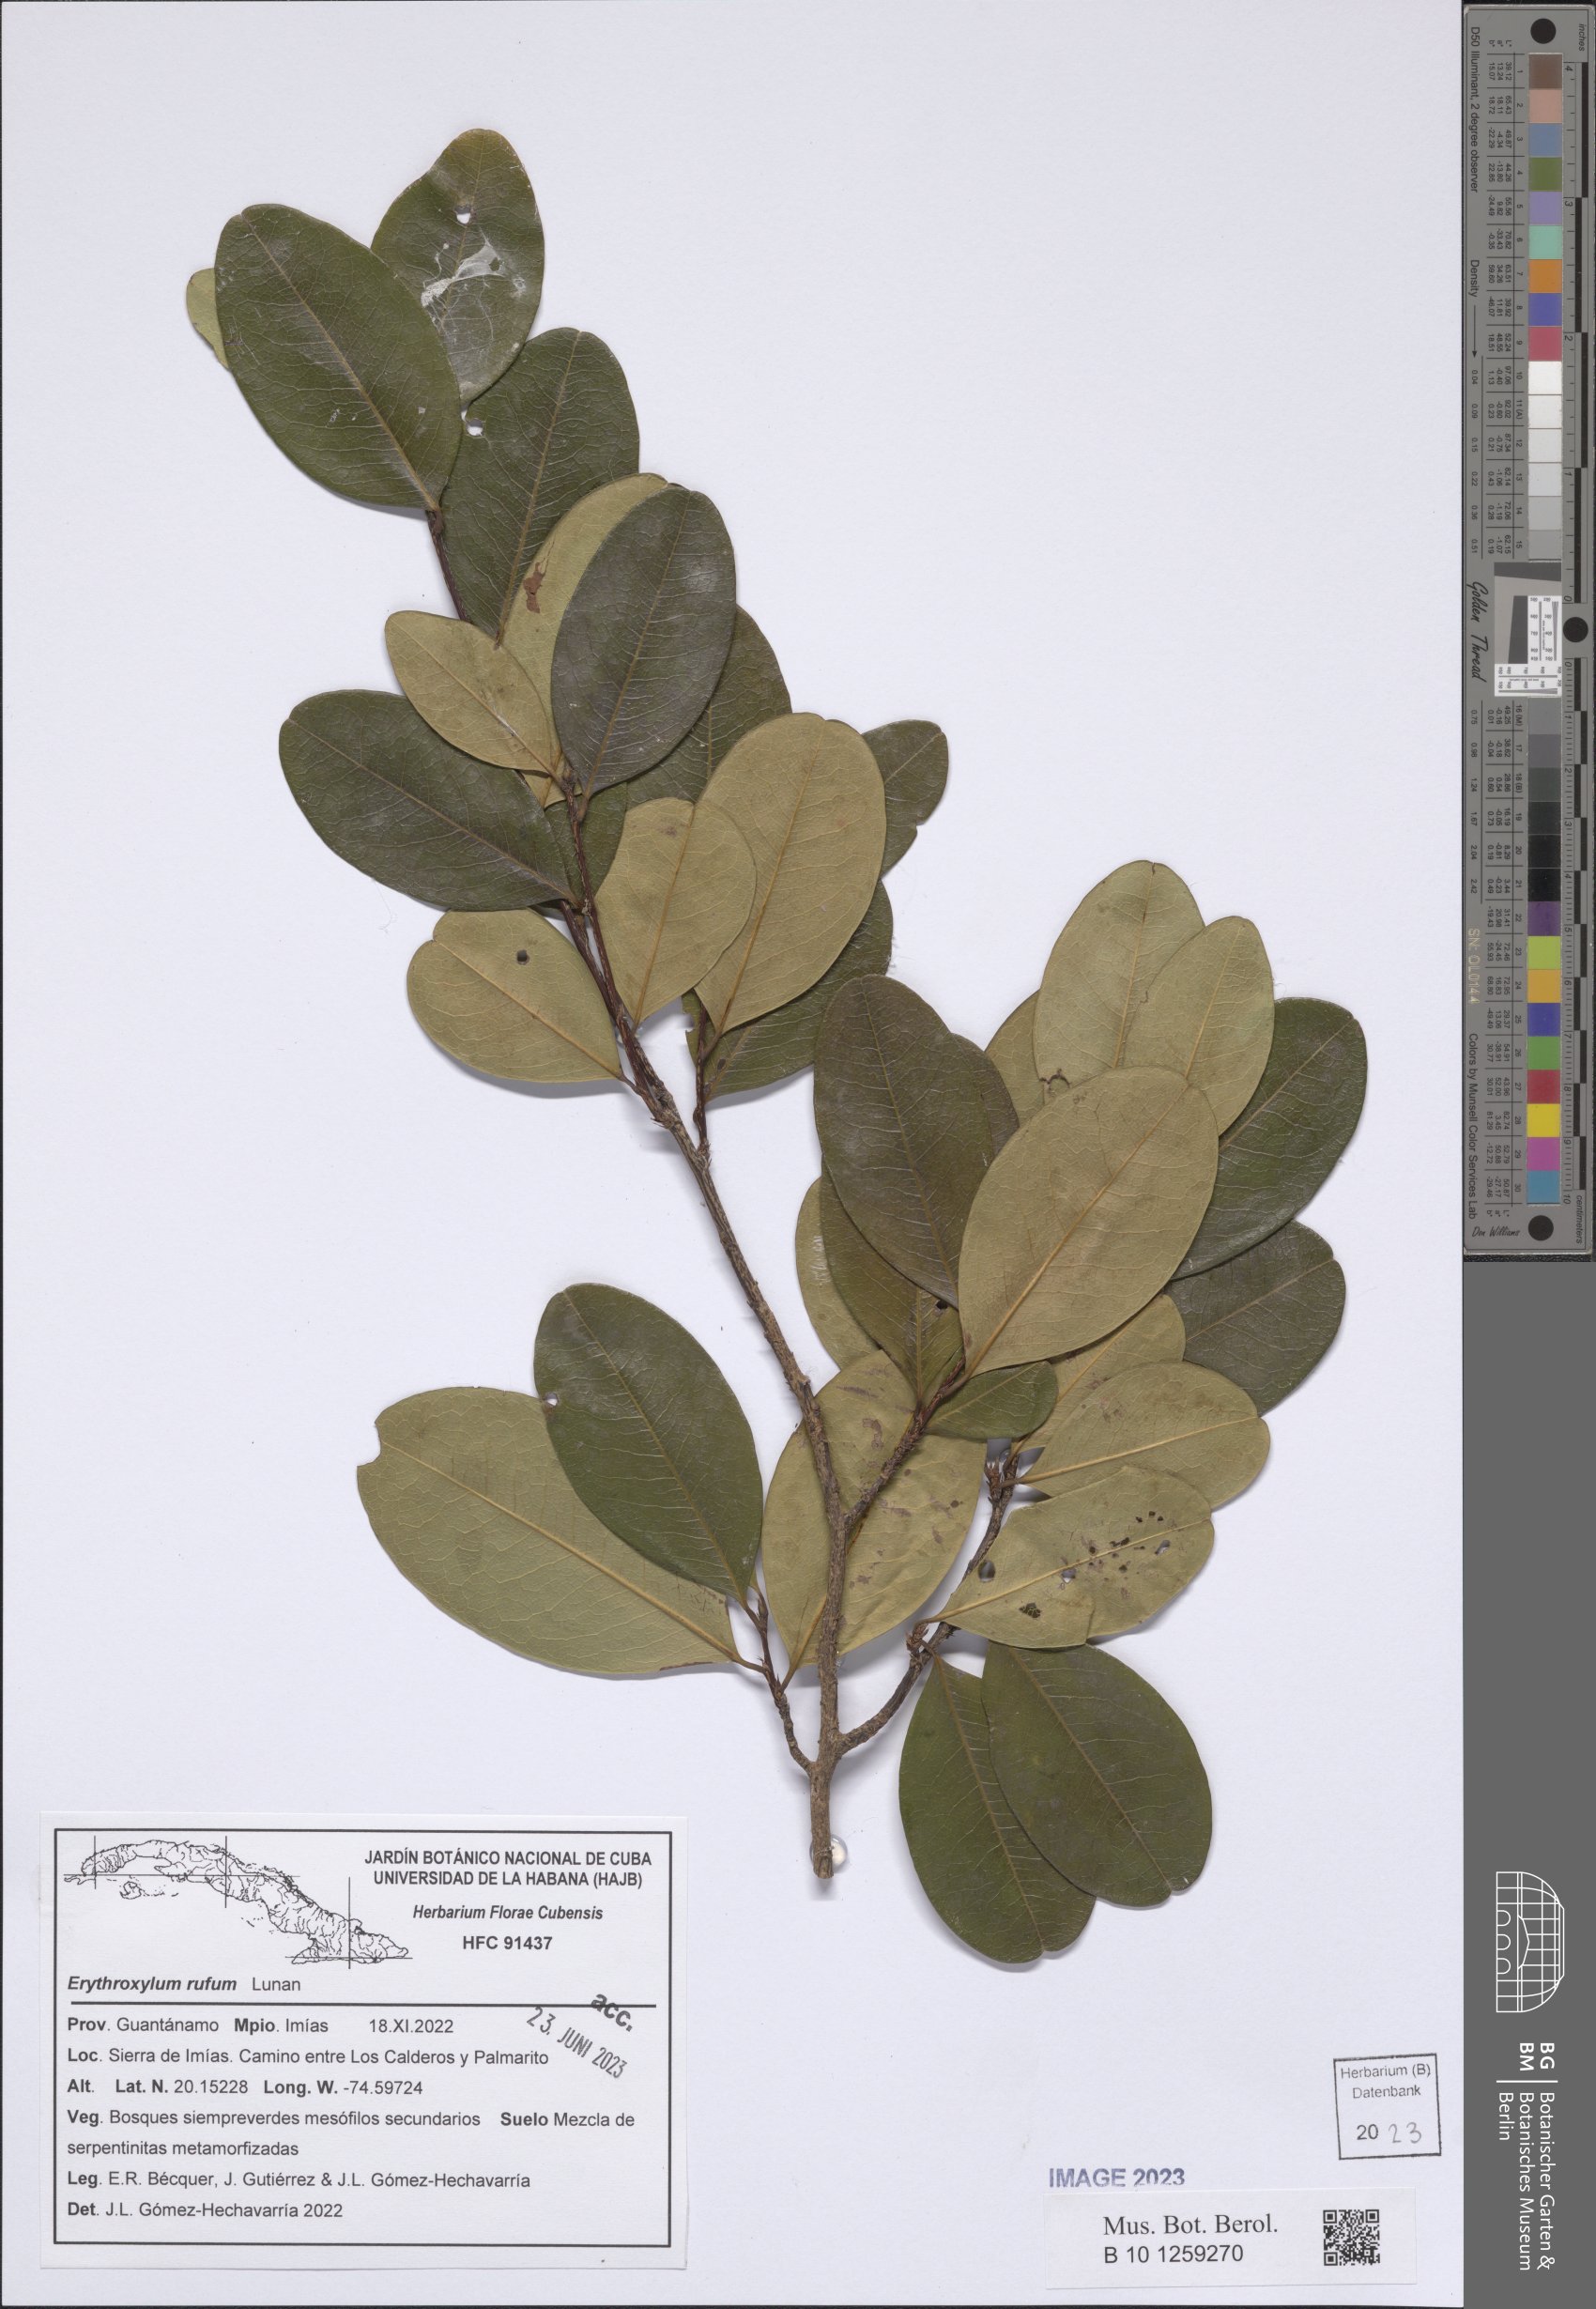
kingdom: Plantae
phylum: Tracheophyta
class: Magnoliopsida
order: Malpighiales
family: Erythroxylaceae
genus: Erythroxylum
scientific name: Erythroxylum rufum
